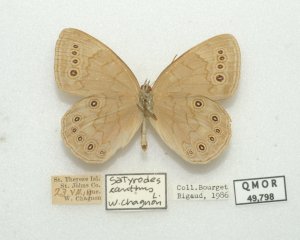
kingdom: Animalia
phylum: Arthropoda
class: Insecta
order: Lepidoptera
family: Nymphalidae
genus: Lethe
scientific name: Lethe eurydice
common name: Eyed Brown
